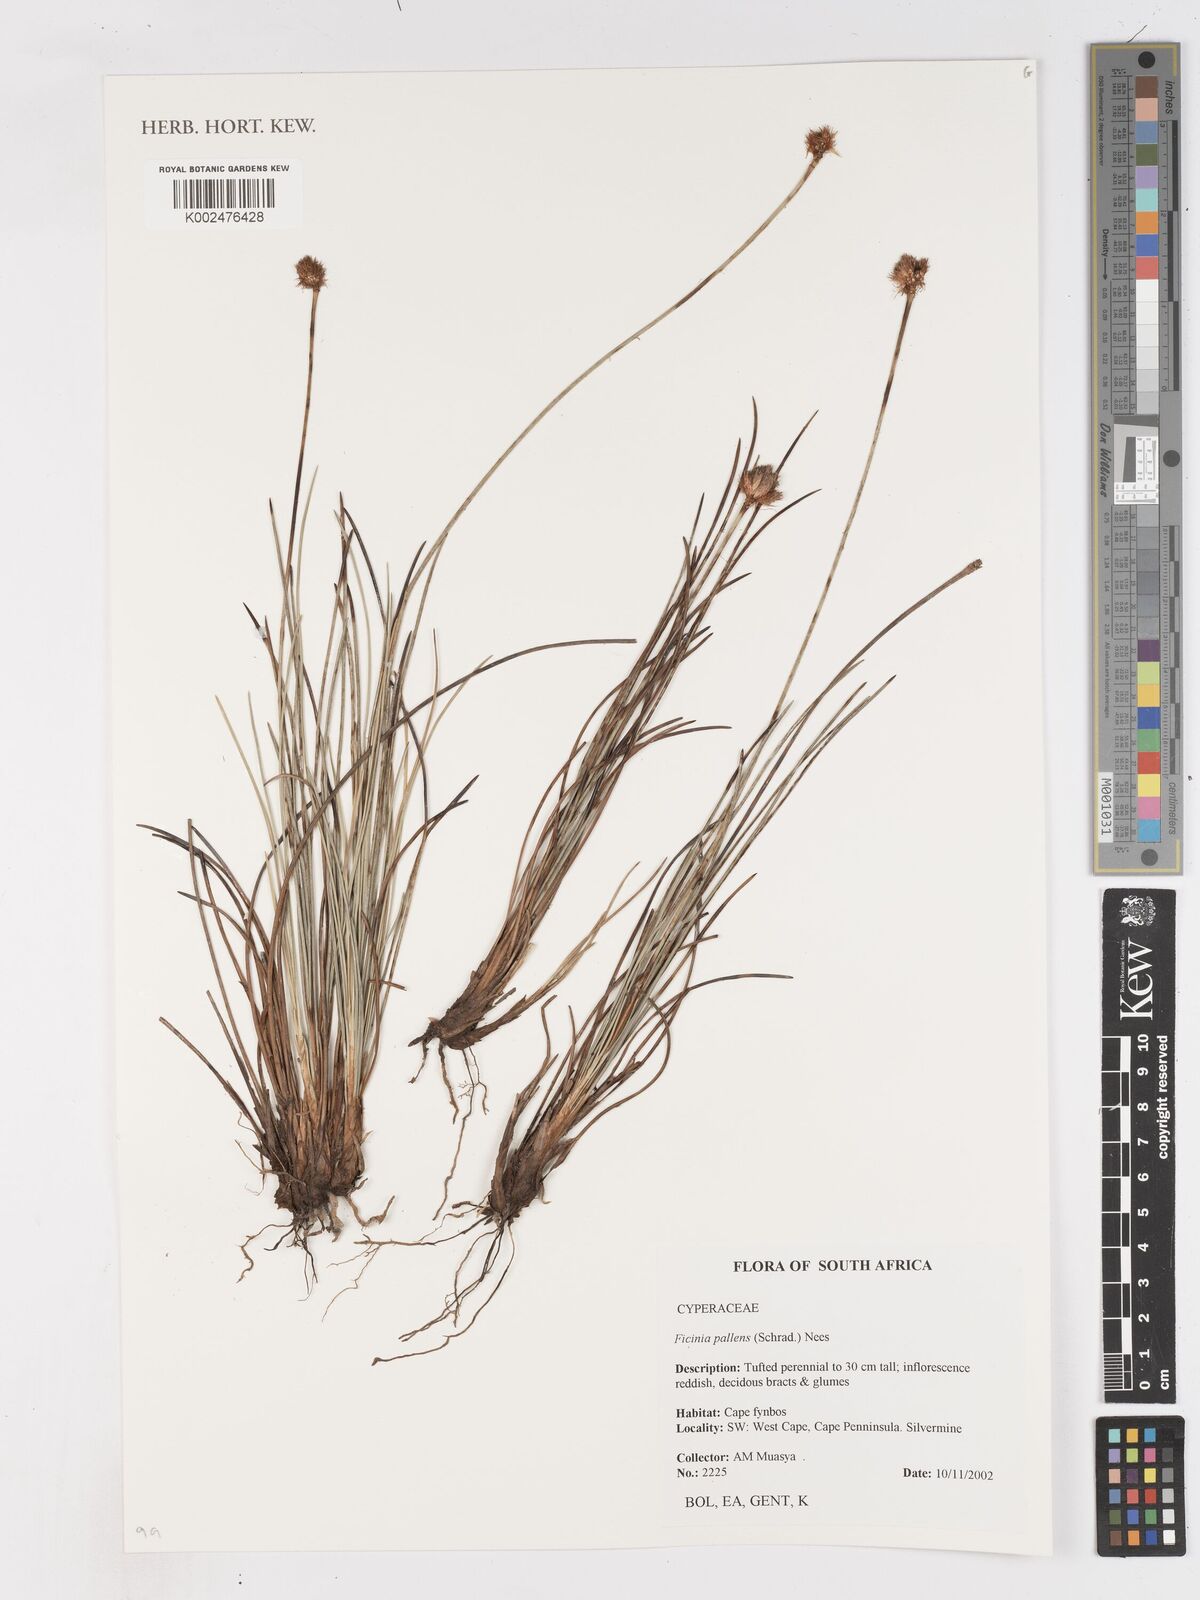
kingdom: Plantae
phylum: Tracheophyta
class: Liliopsida
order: Poales
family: Cyperaceae
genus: Ficinia
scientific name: Ficinia pallens
